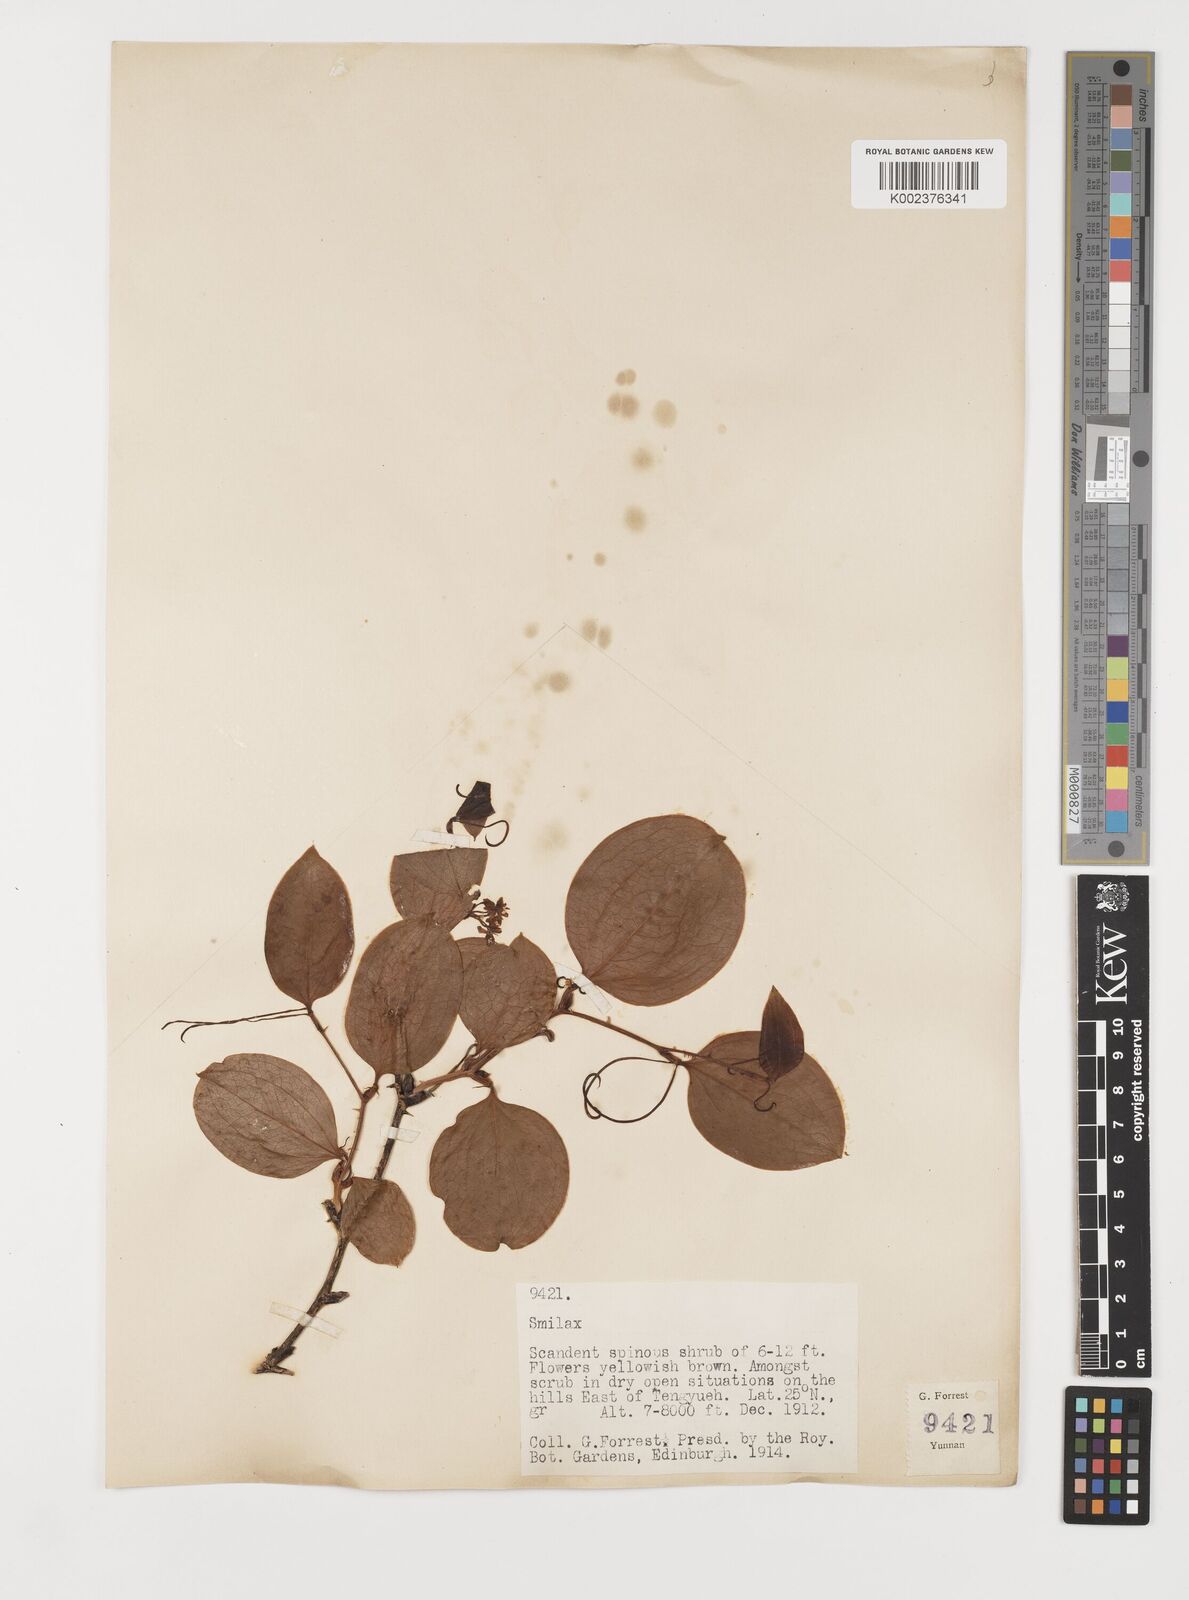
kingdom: Plantae
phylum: Tracheophyta
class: Liliopsida
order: Liliales
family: Smilacaceae
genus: Smilax
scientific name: Smilax china
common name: Chinaroot
